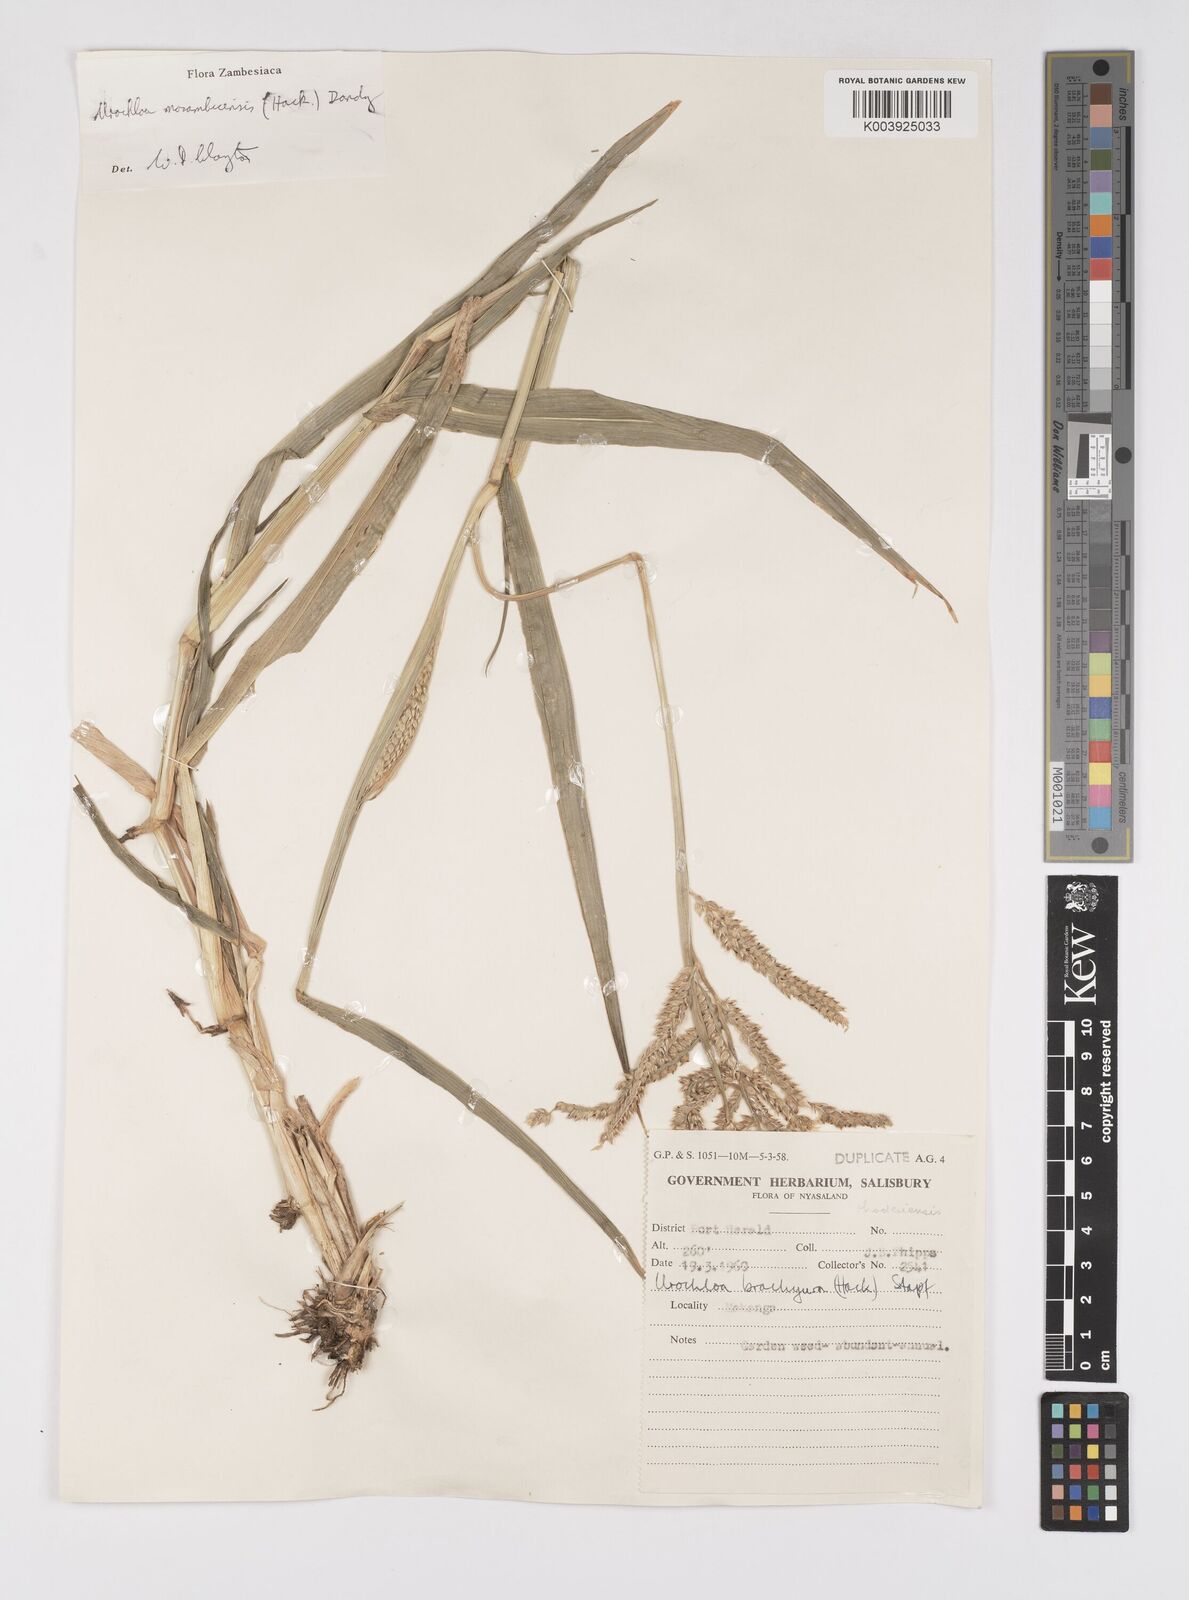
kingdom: Plantae
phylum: Tracheophyta
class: Liliopsida
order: Poales
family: Poaceae
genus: Urochloa
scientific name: Urochloa trichopus
